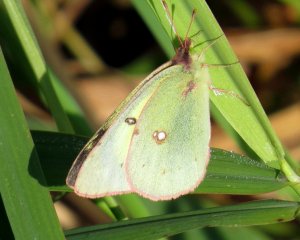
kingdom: Animalia
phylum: Arthropoda
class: Insecta
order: Lepidoptera
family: Pieridae
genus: Colias
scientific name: Colias philodice
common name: Clouded Sulphur
